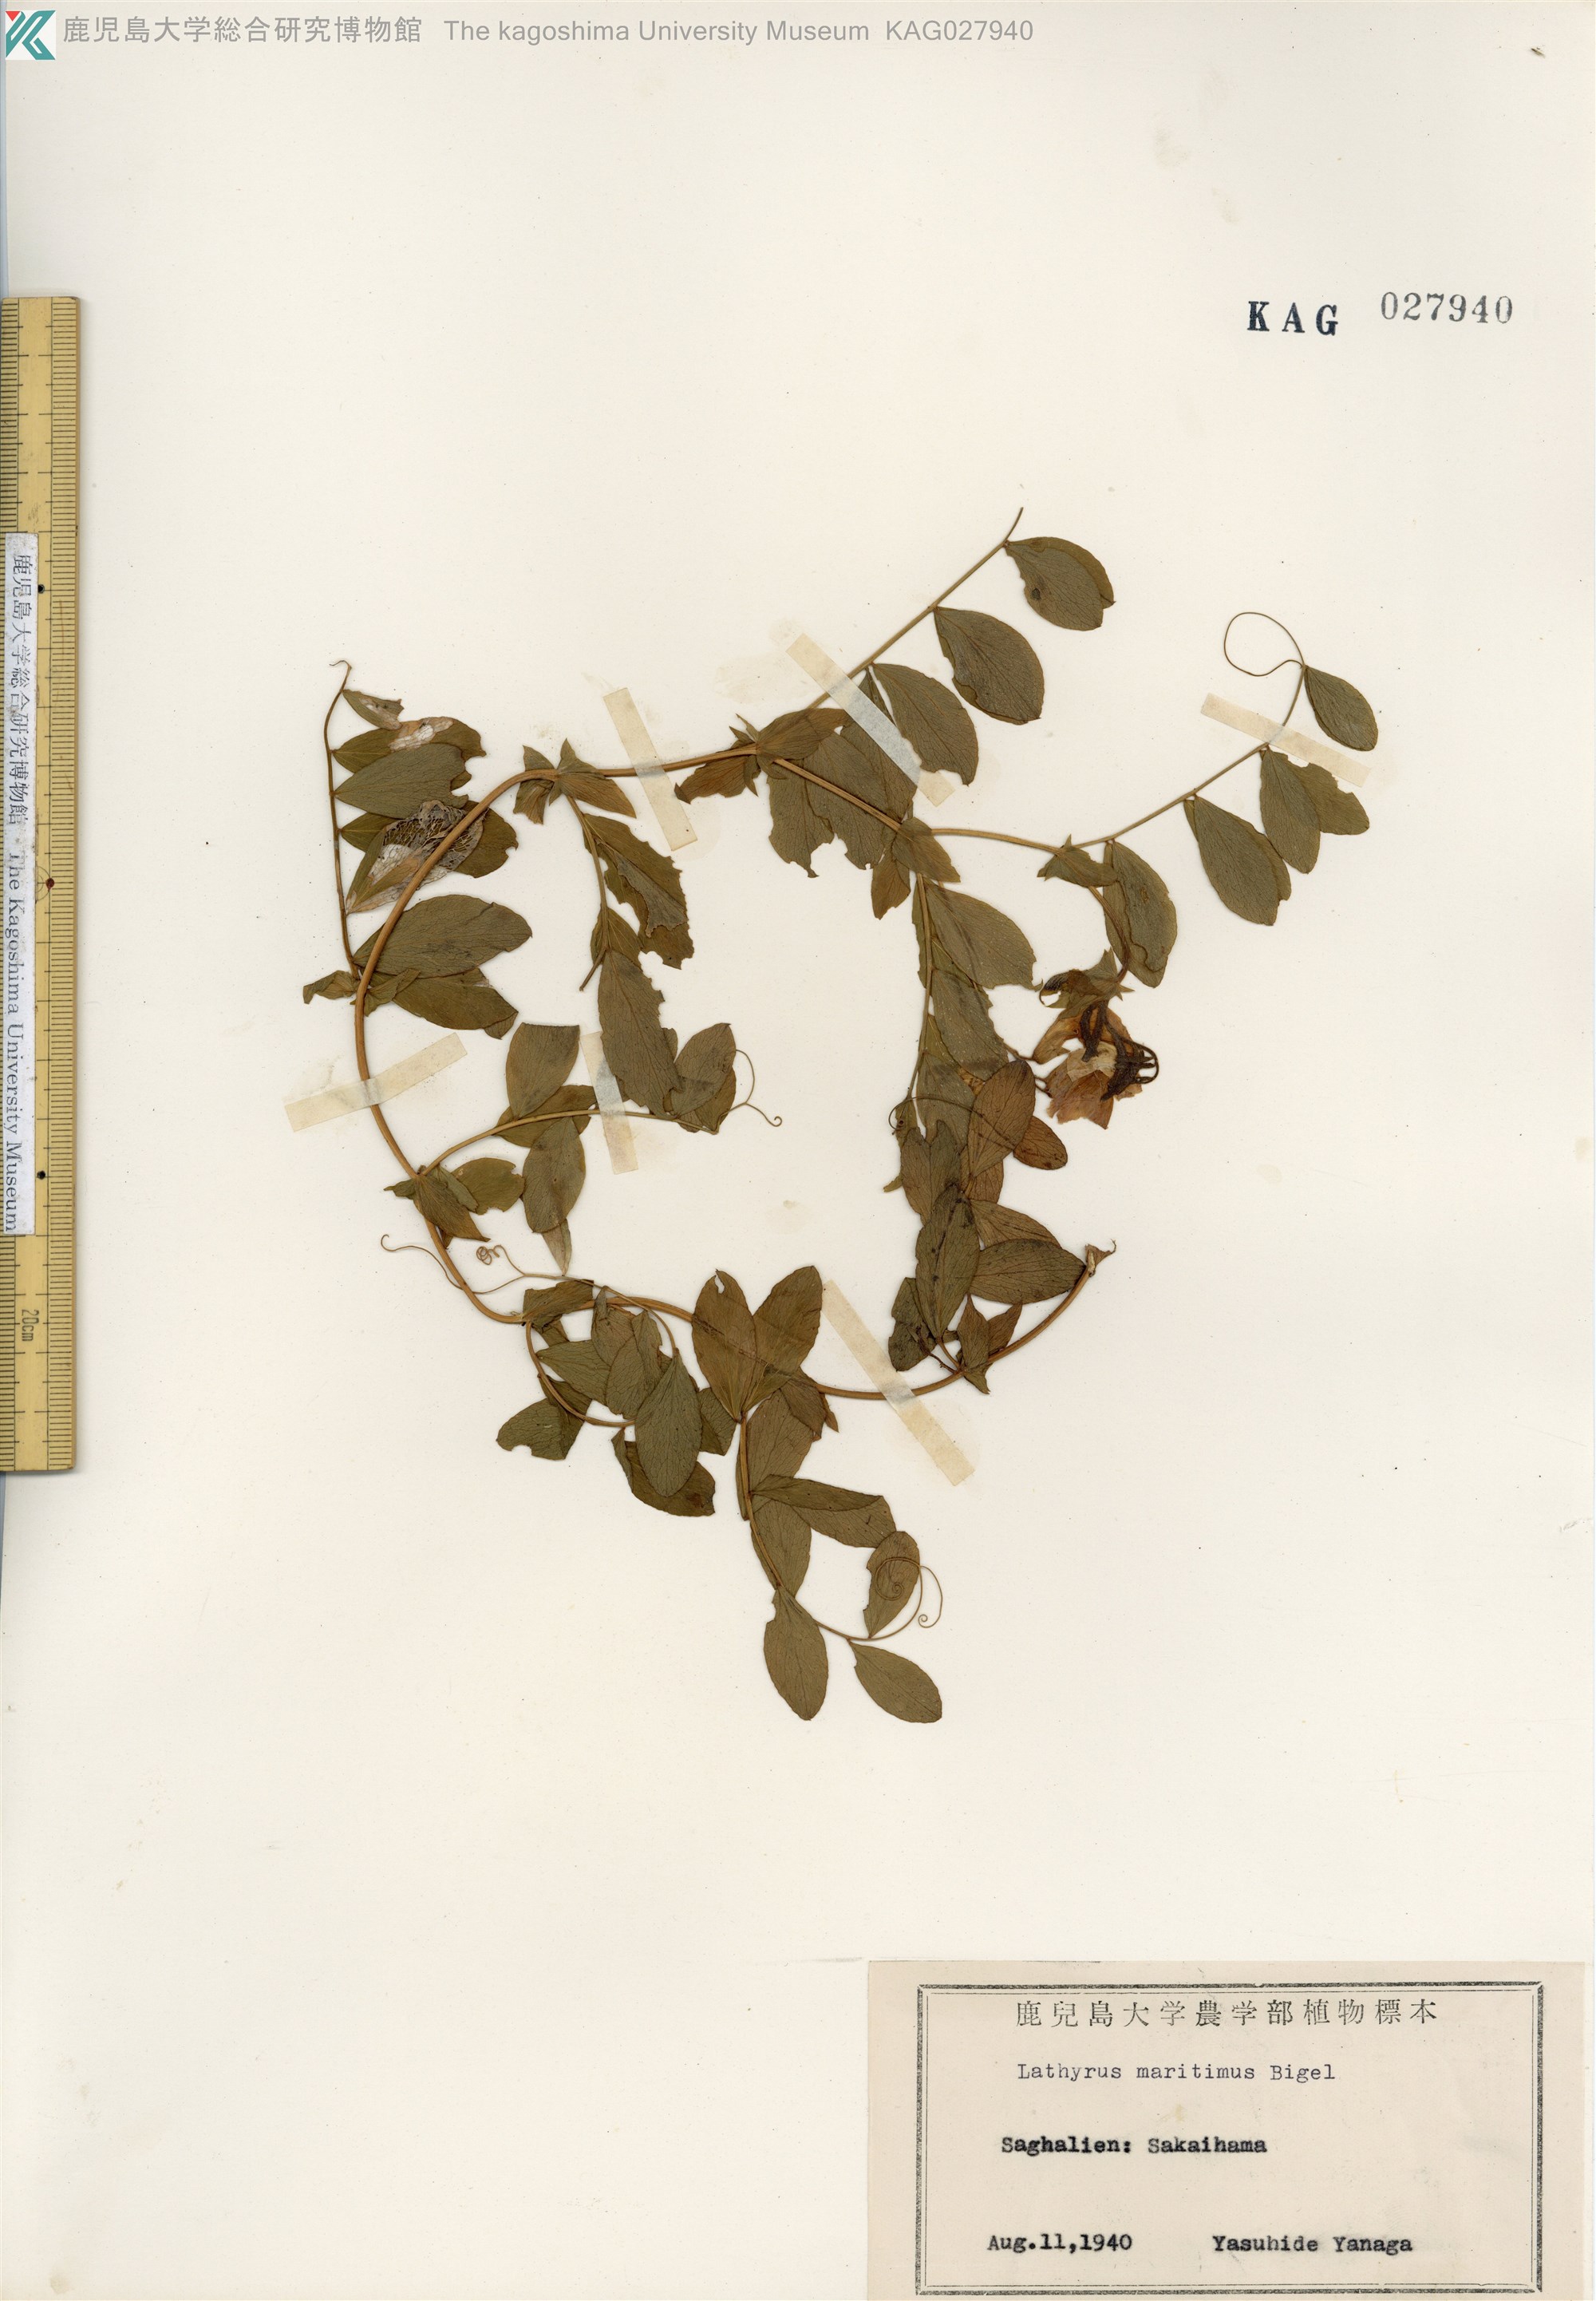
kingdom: Plantae
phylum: Tracheophyta
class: Magnoliopsida
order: Fabales
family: Fabaceae
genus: Lathyrus
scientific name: Lathyrus japonicus
